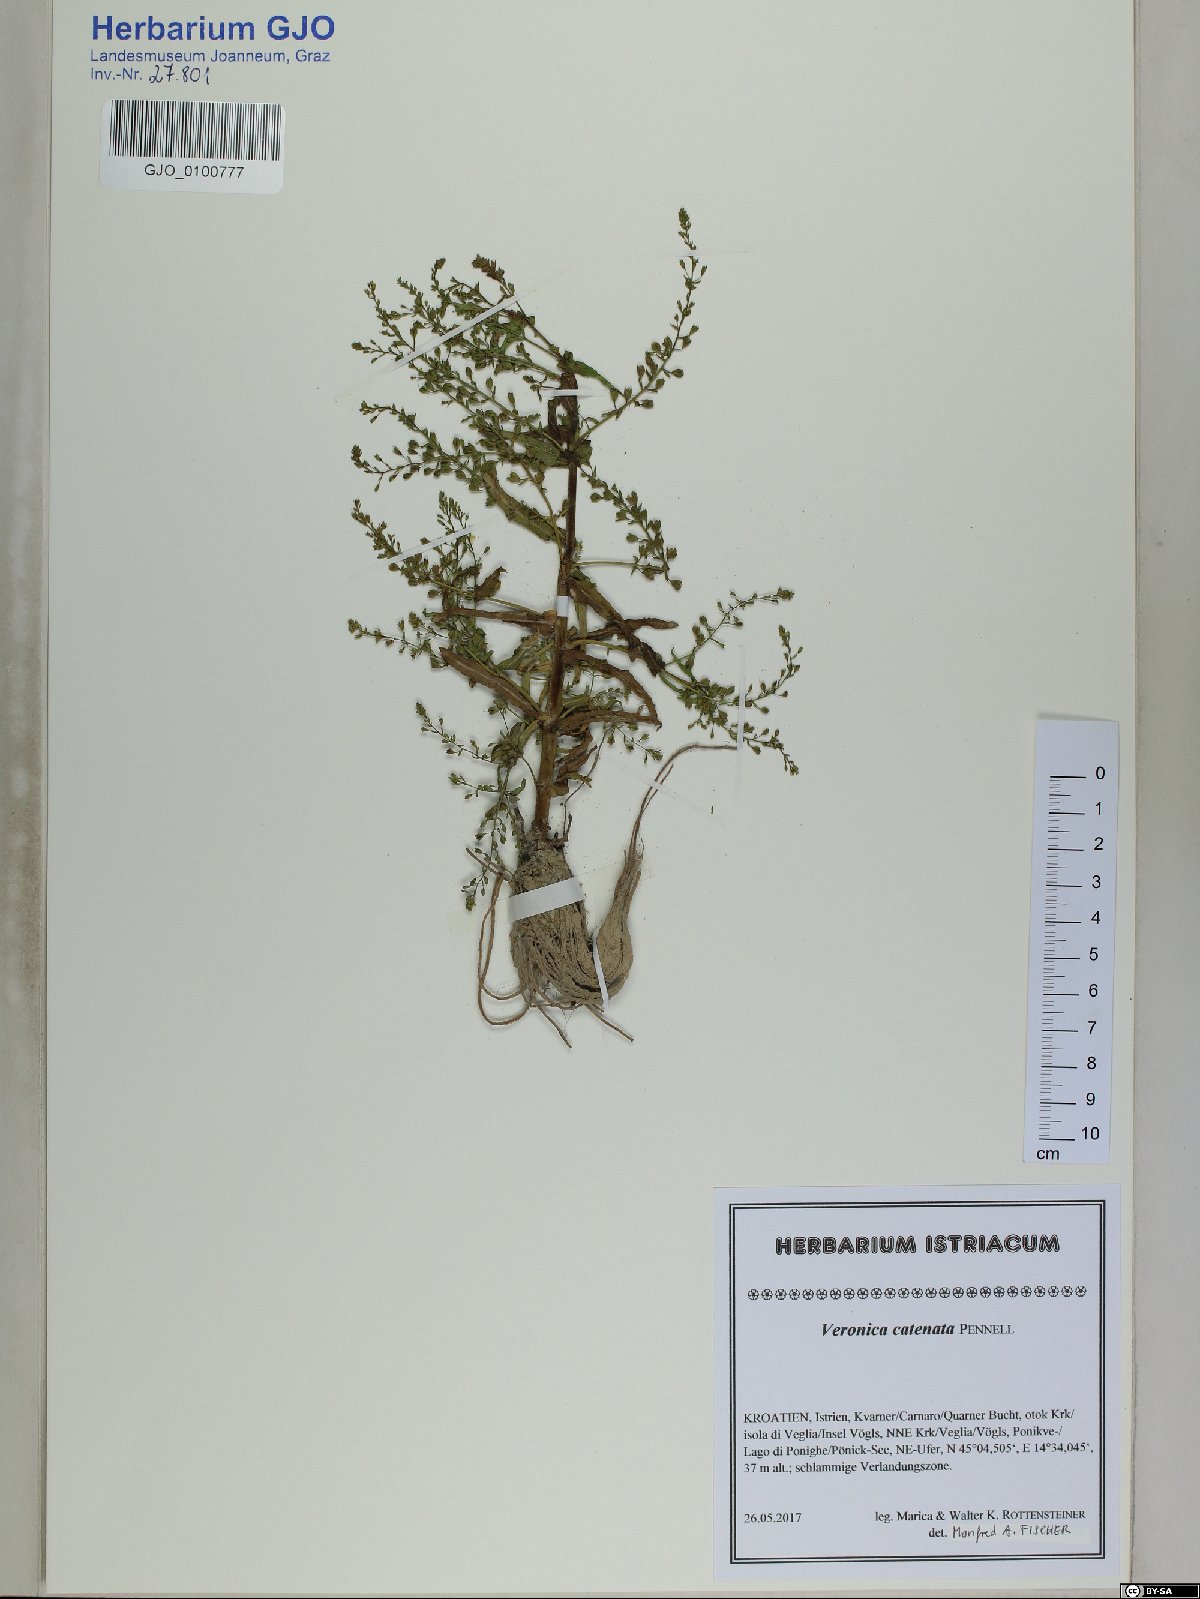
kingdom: Plantae
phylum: Tracheophyta
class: Magnoliopsida
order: Lamiales
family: Plantaginaceae
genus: Veronica
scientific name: Veronica catenata
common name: Pink water-speedwell
